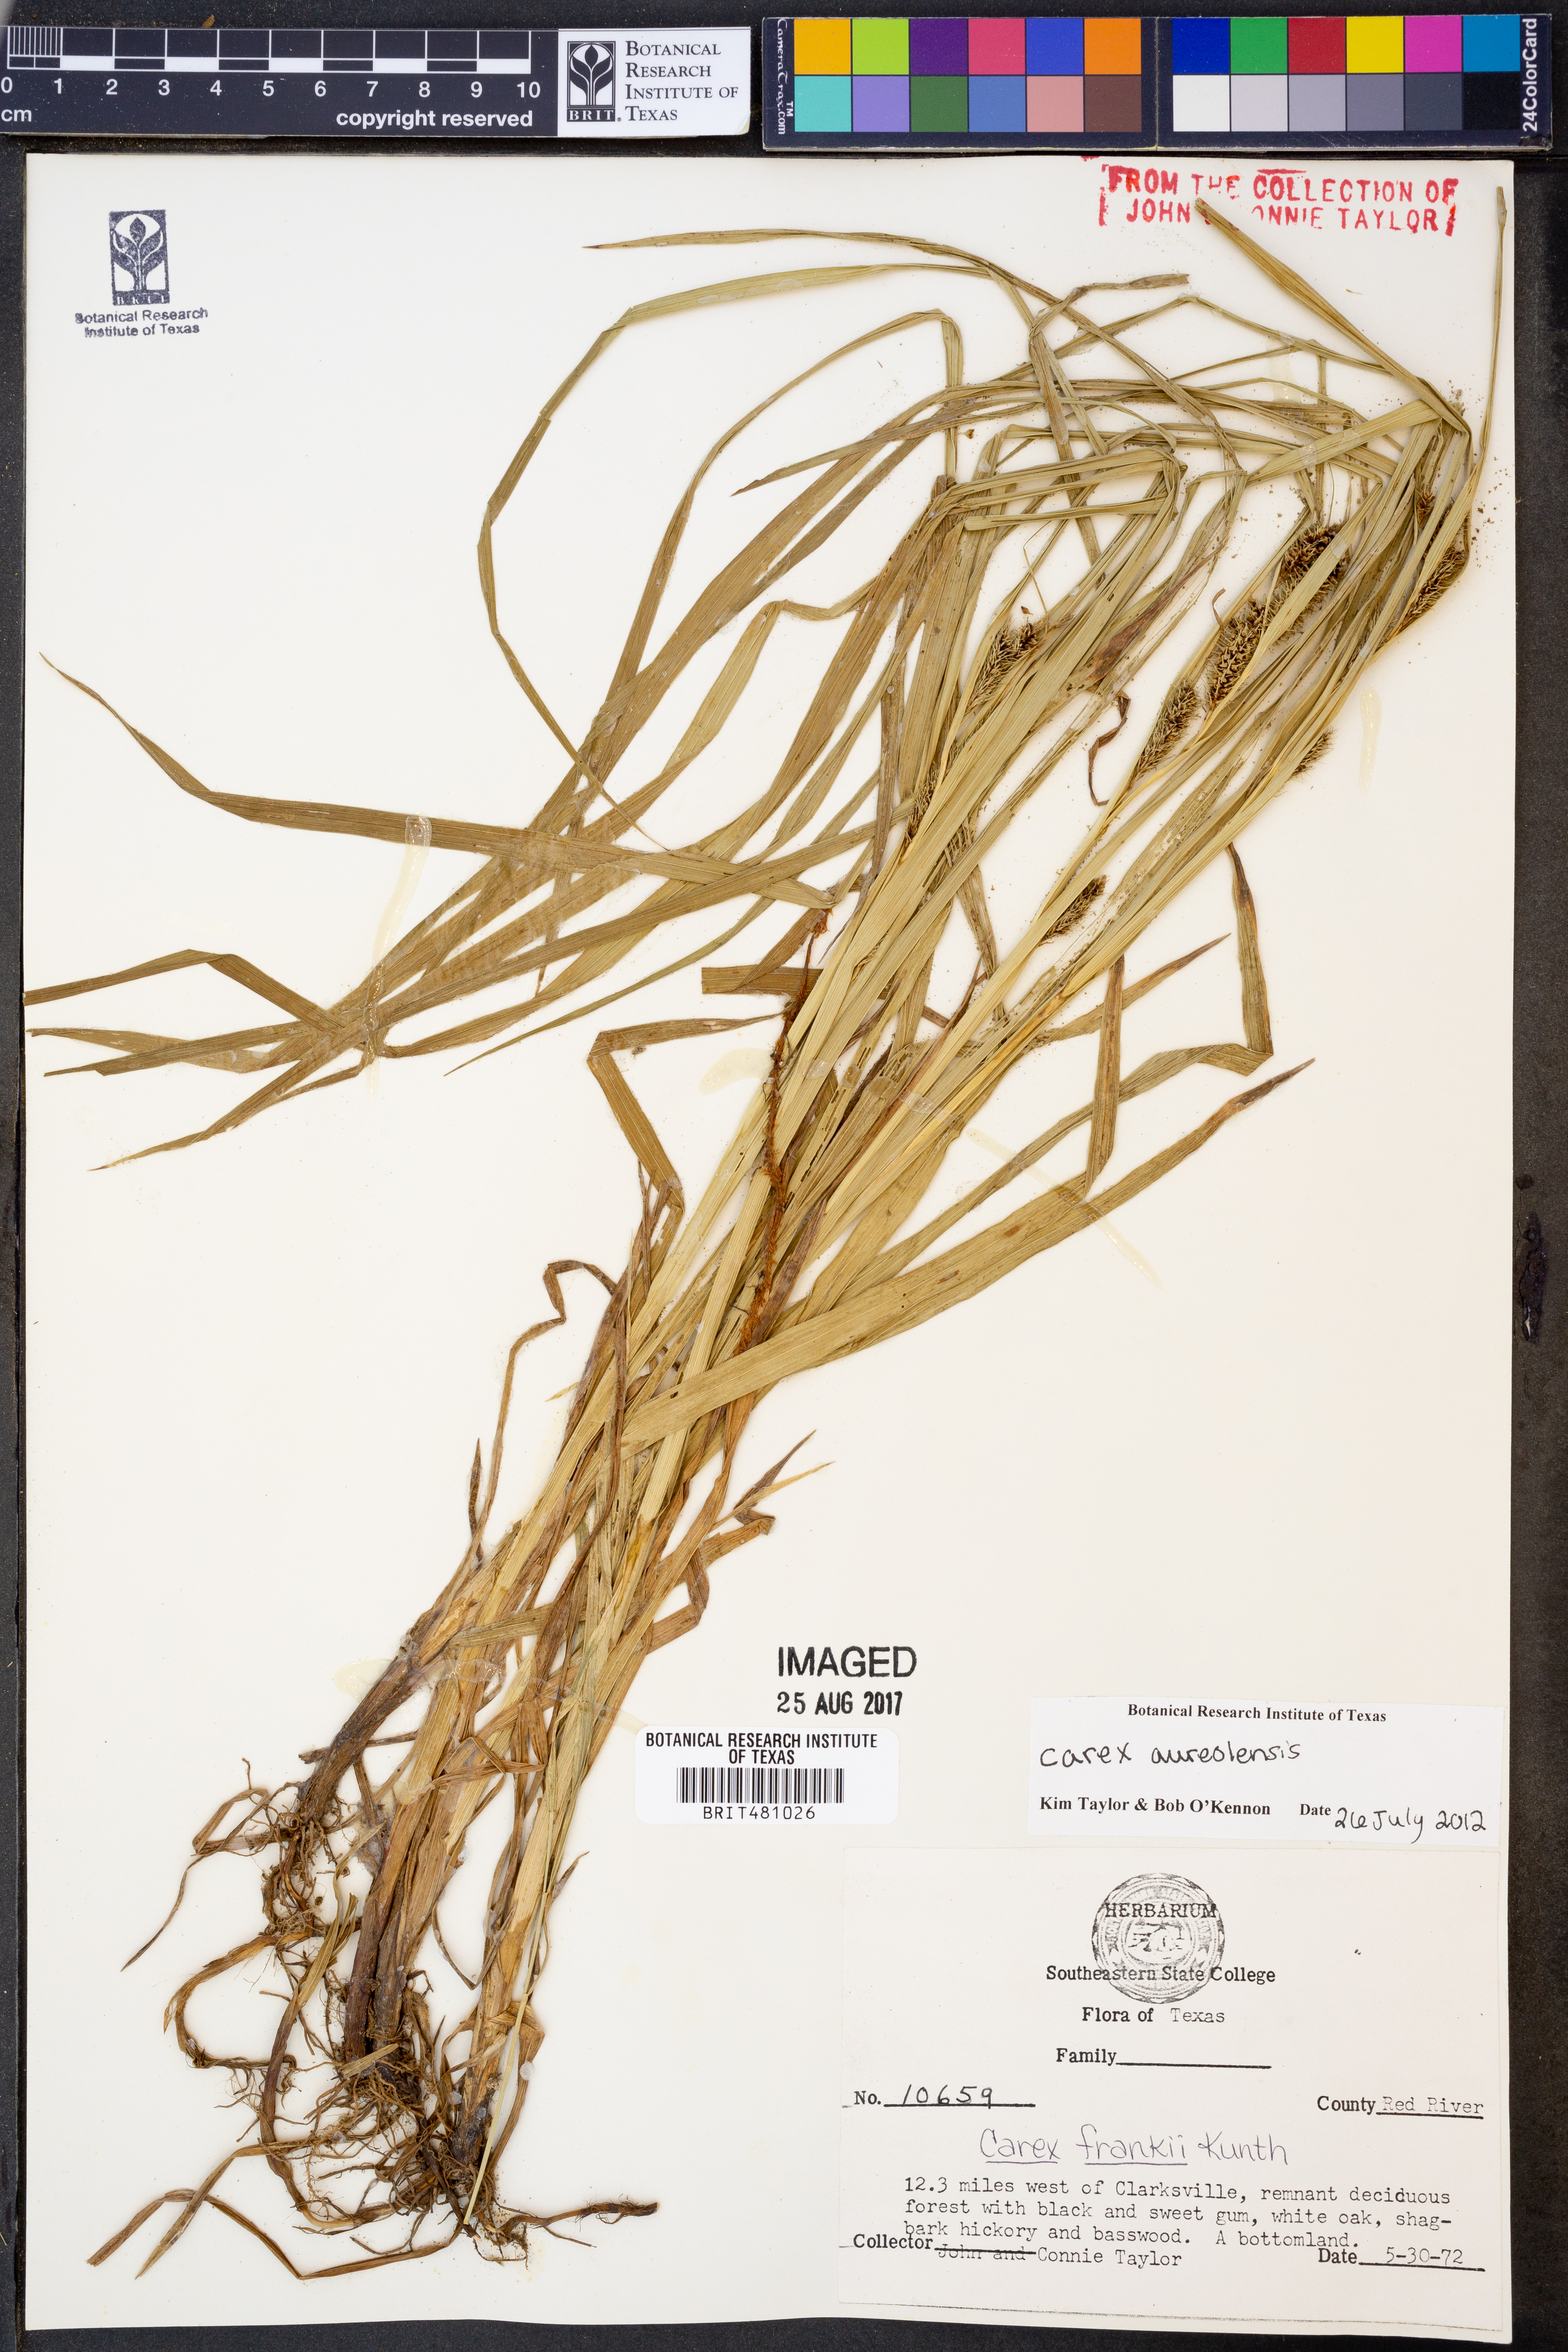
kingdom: Plantae
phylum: Tracheophyta
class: Liliopsida
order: Poales
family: Cyperaceae
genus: Carex
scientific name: Carex aureolensis
